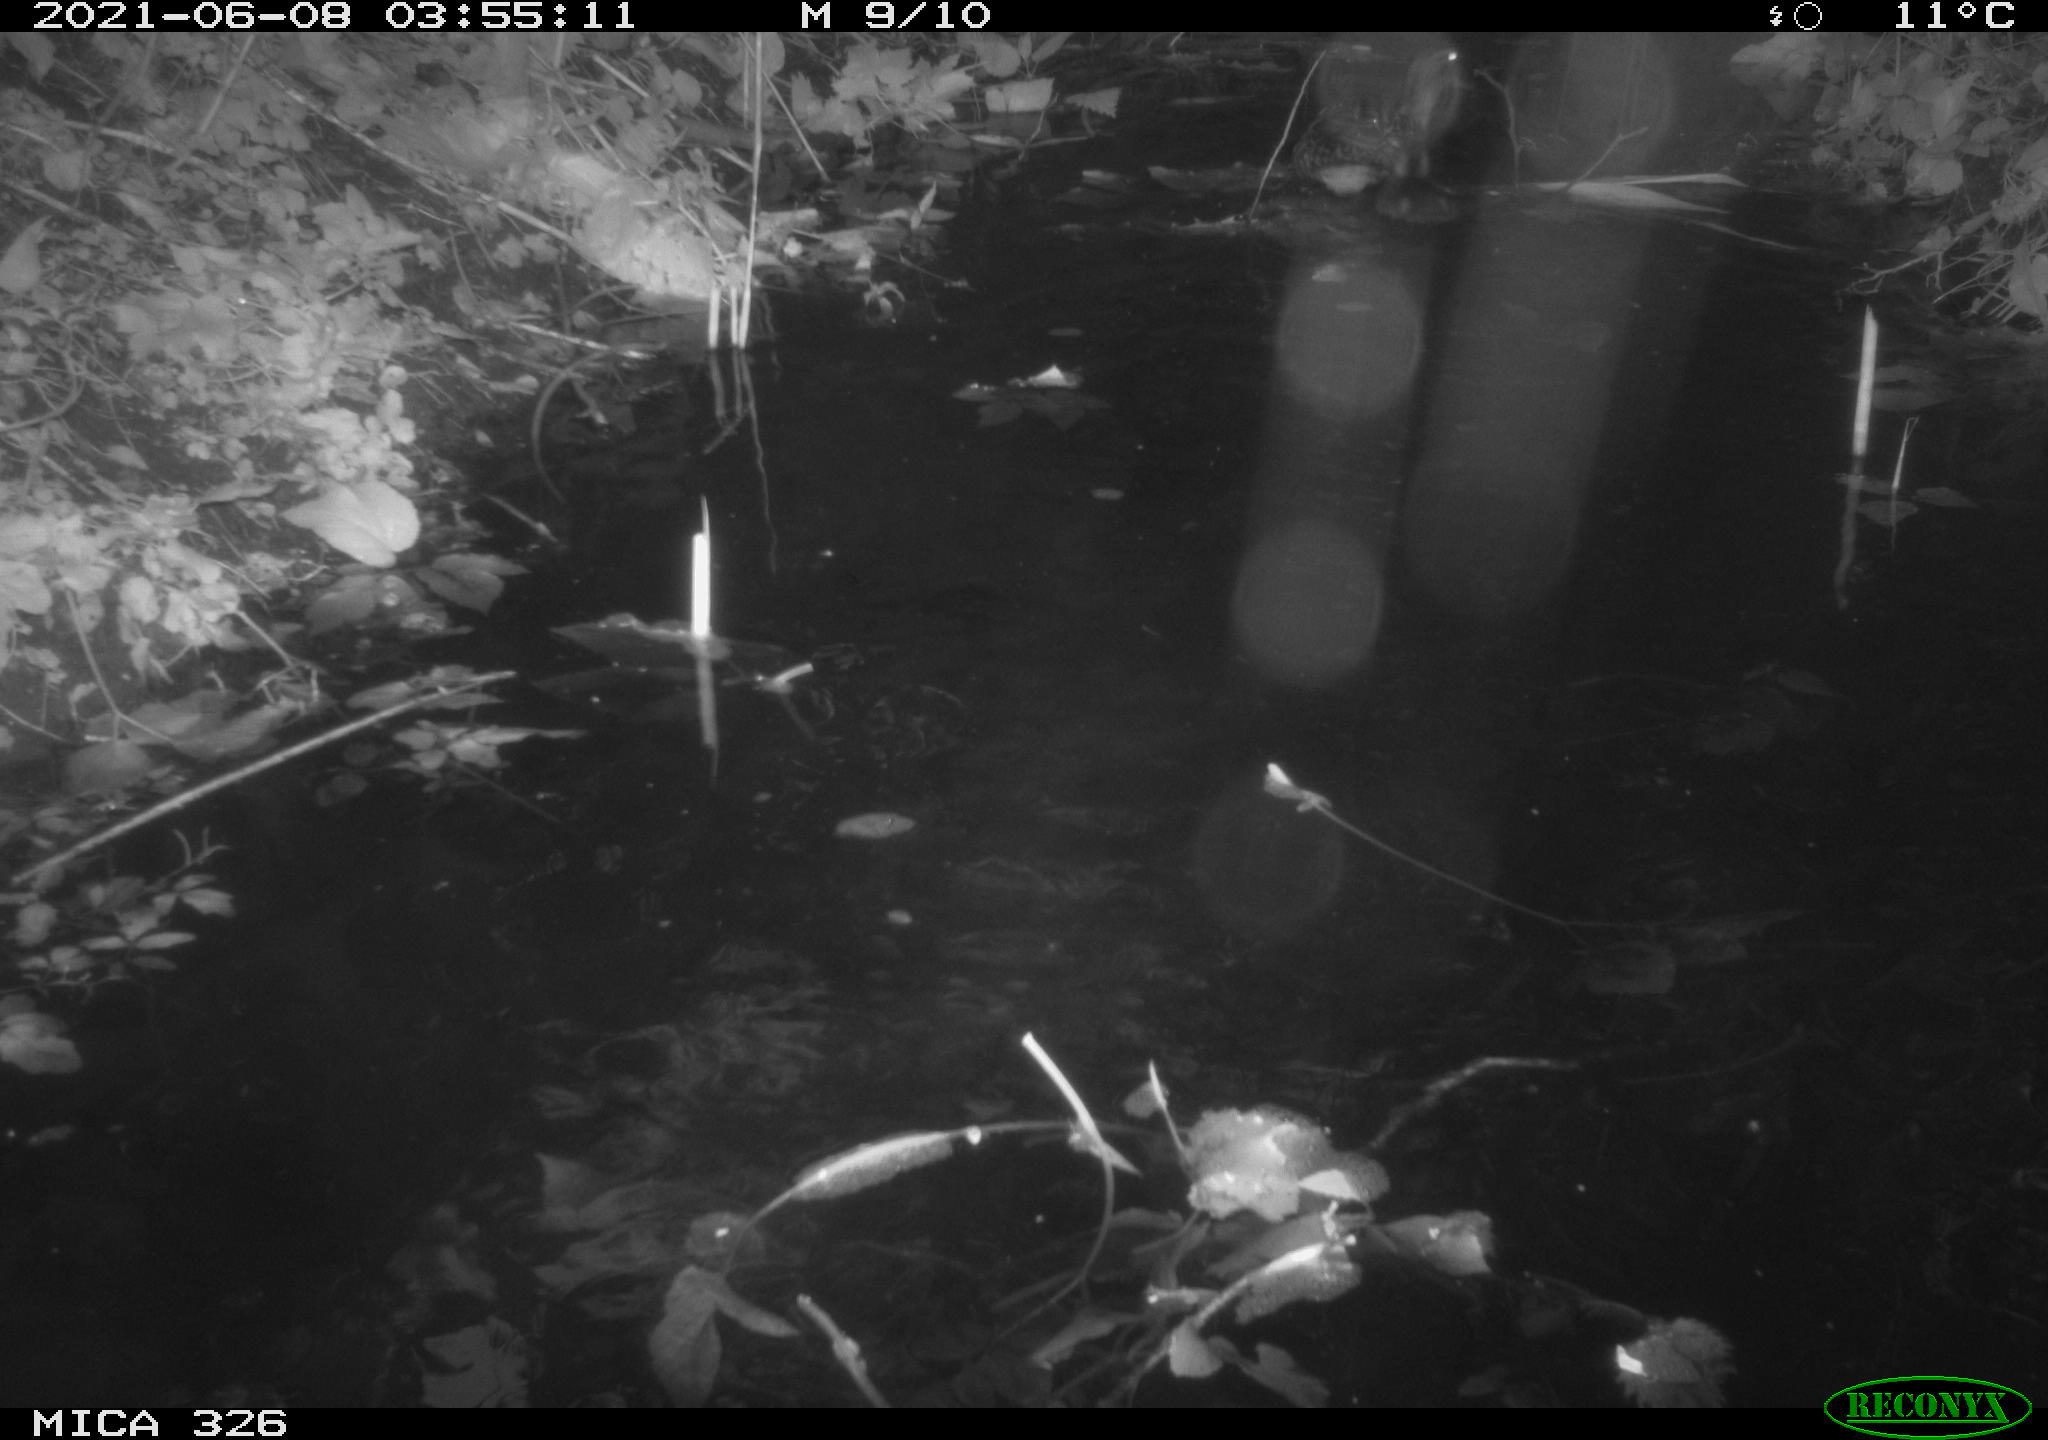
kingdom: Animalia
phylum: Chordata
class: Aves
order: Anseriformes
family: Anatidae
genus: Anas
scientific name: Anas platyrhynchos
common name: Mallard
